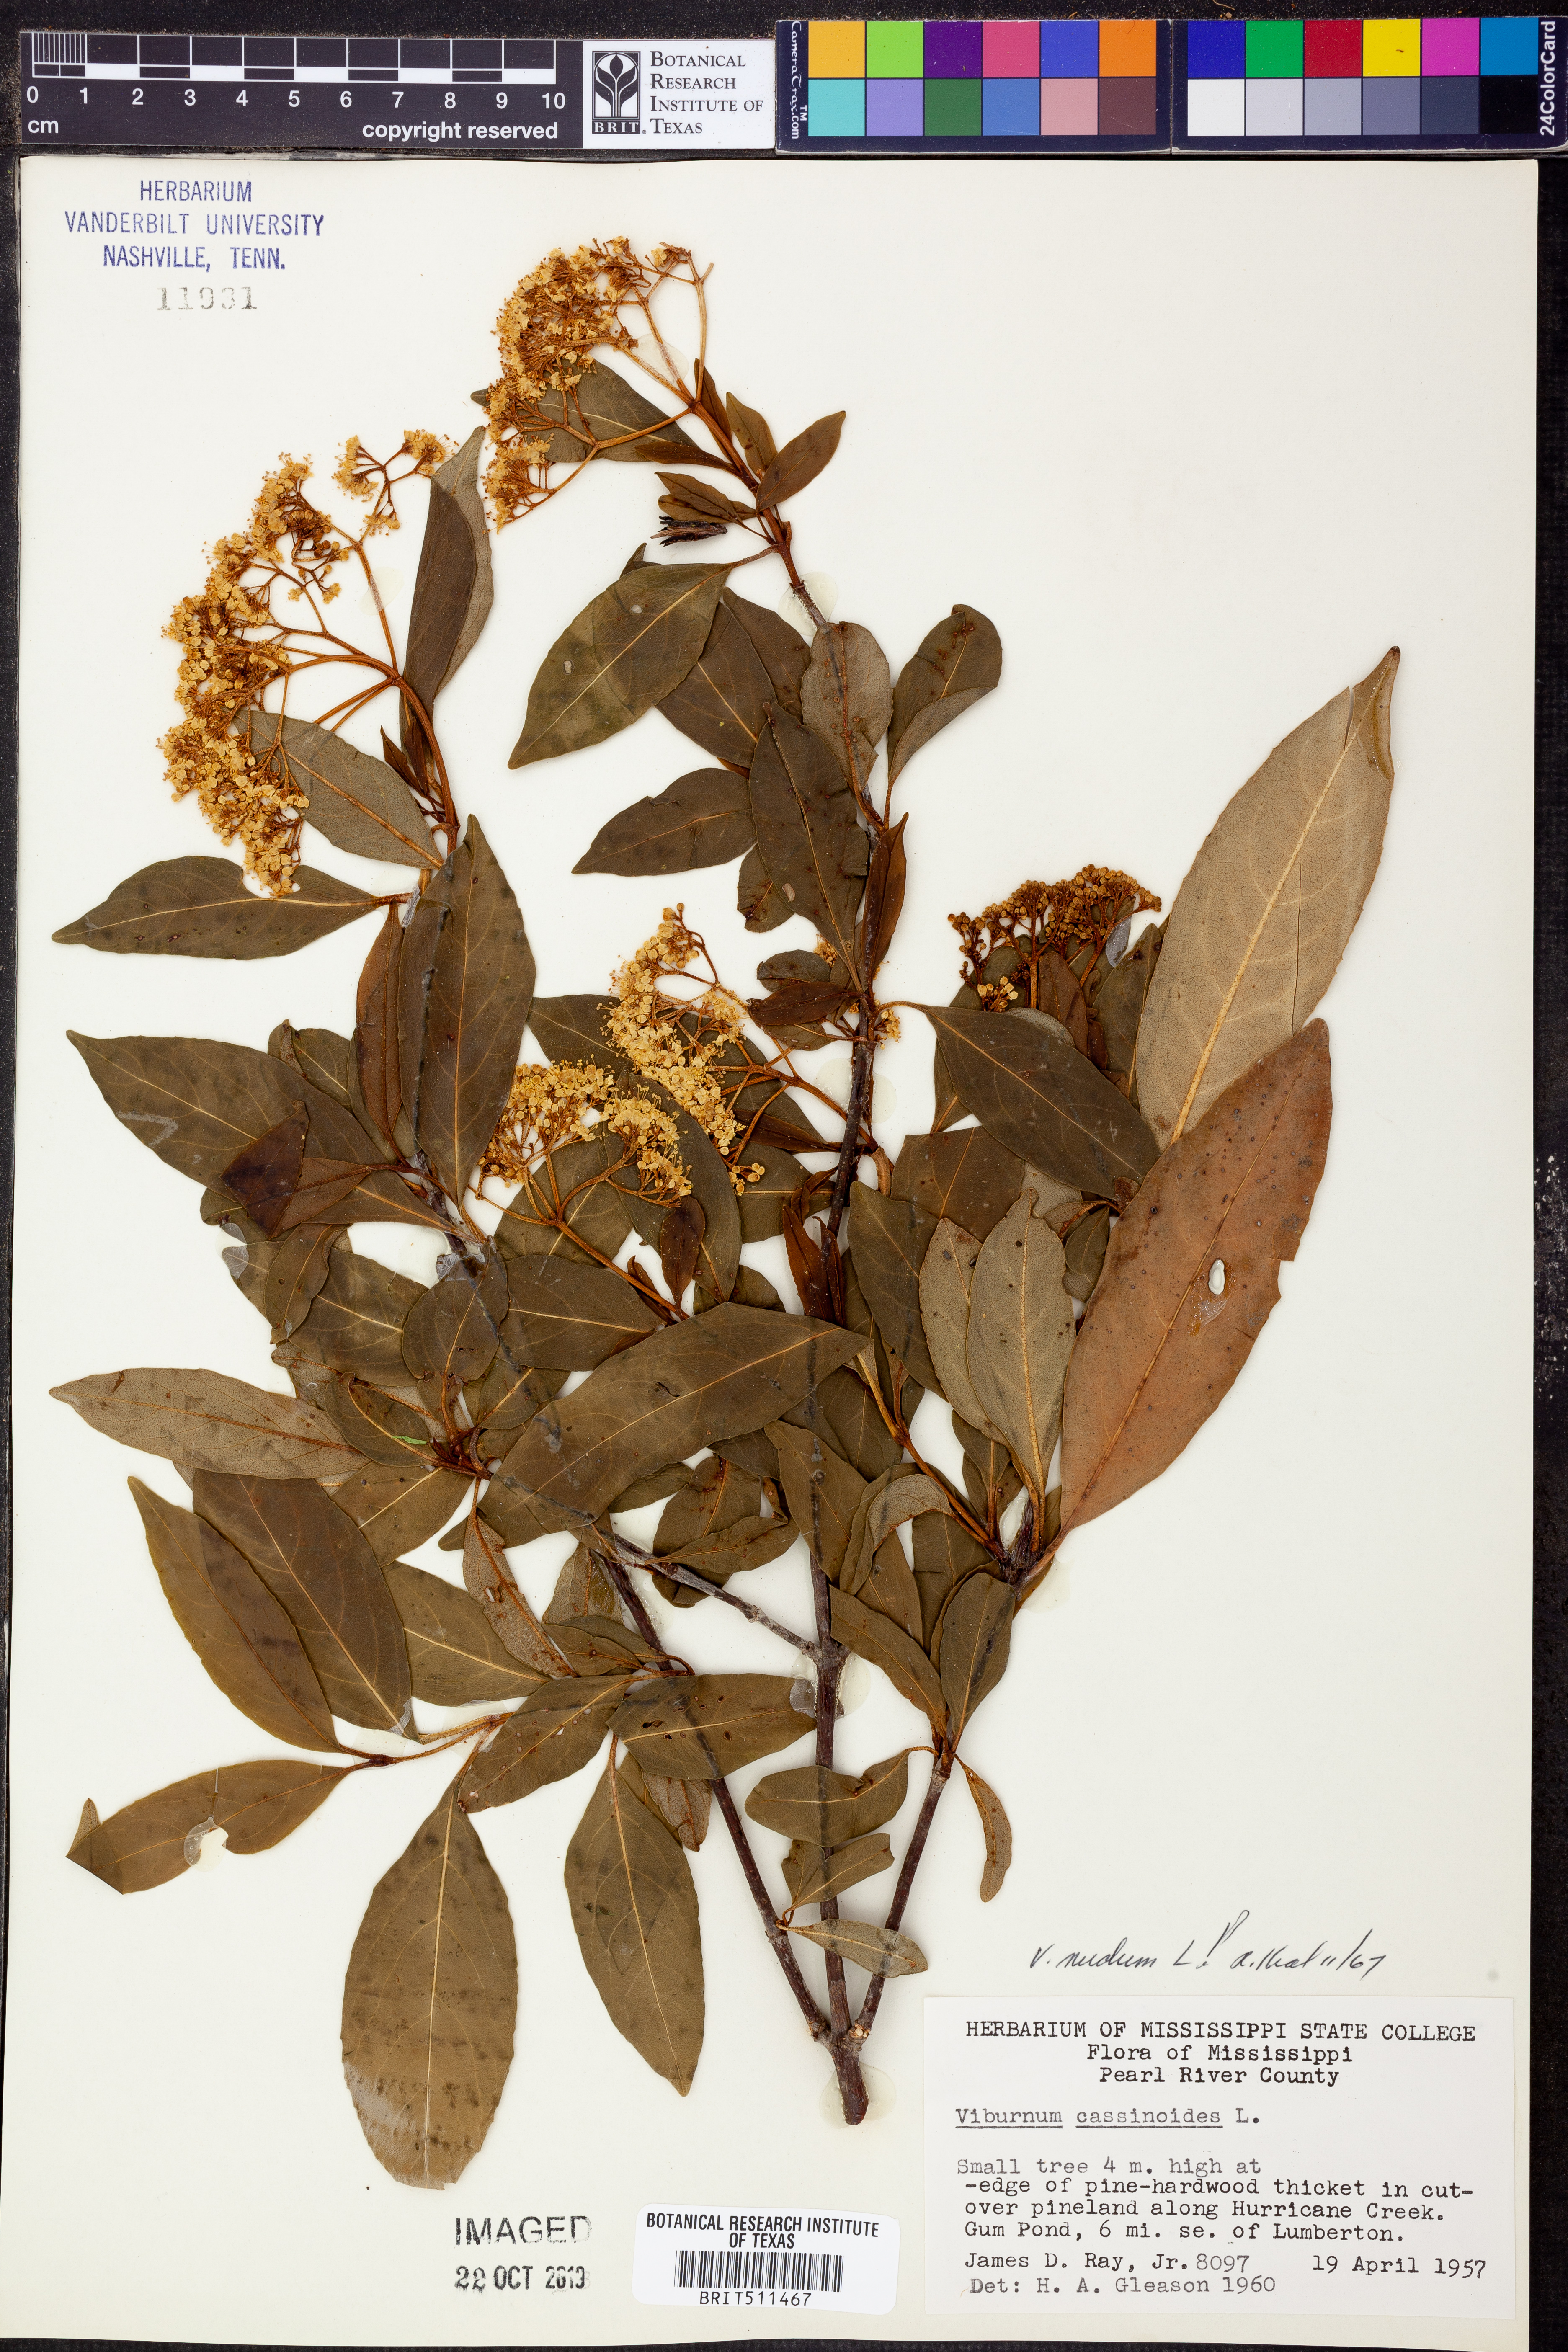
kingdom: Plantae
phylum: Tracheophyta
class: Magnoliopsida
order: Dipsacales
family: Viburnaceae
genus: Viburnum
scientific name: Viburnum cassinoides
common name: Swamp haw
